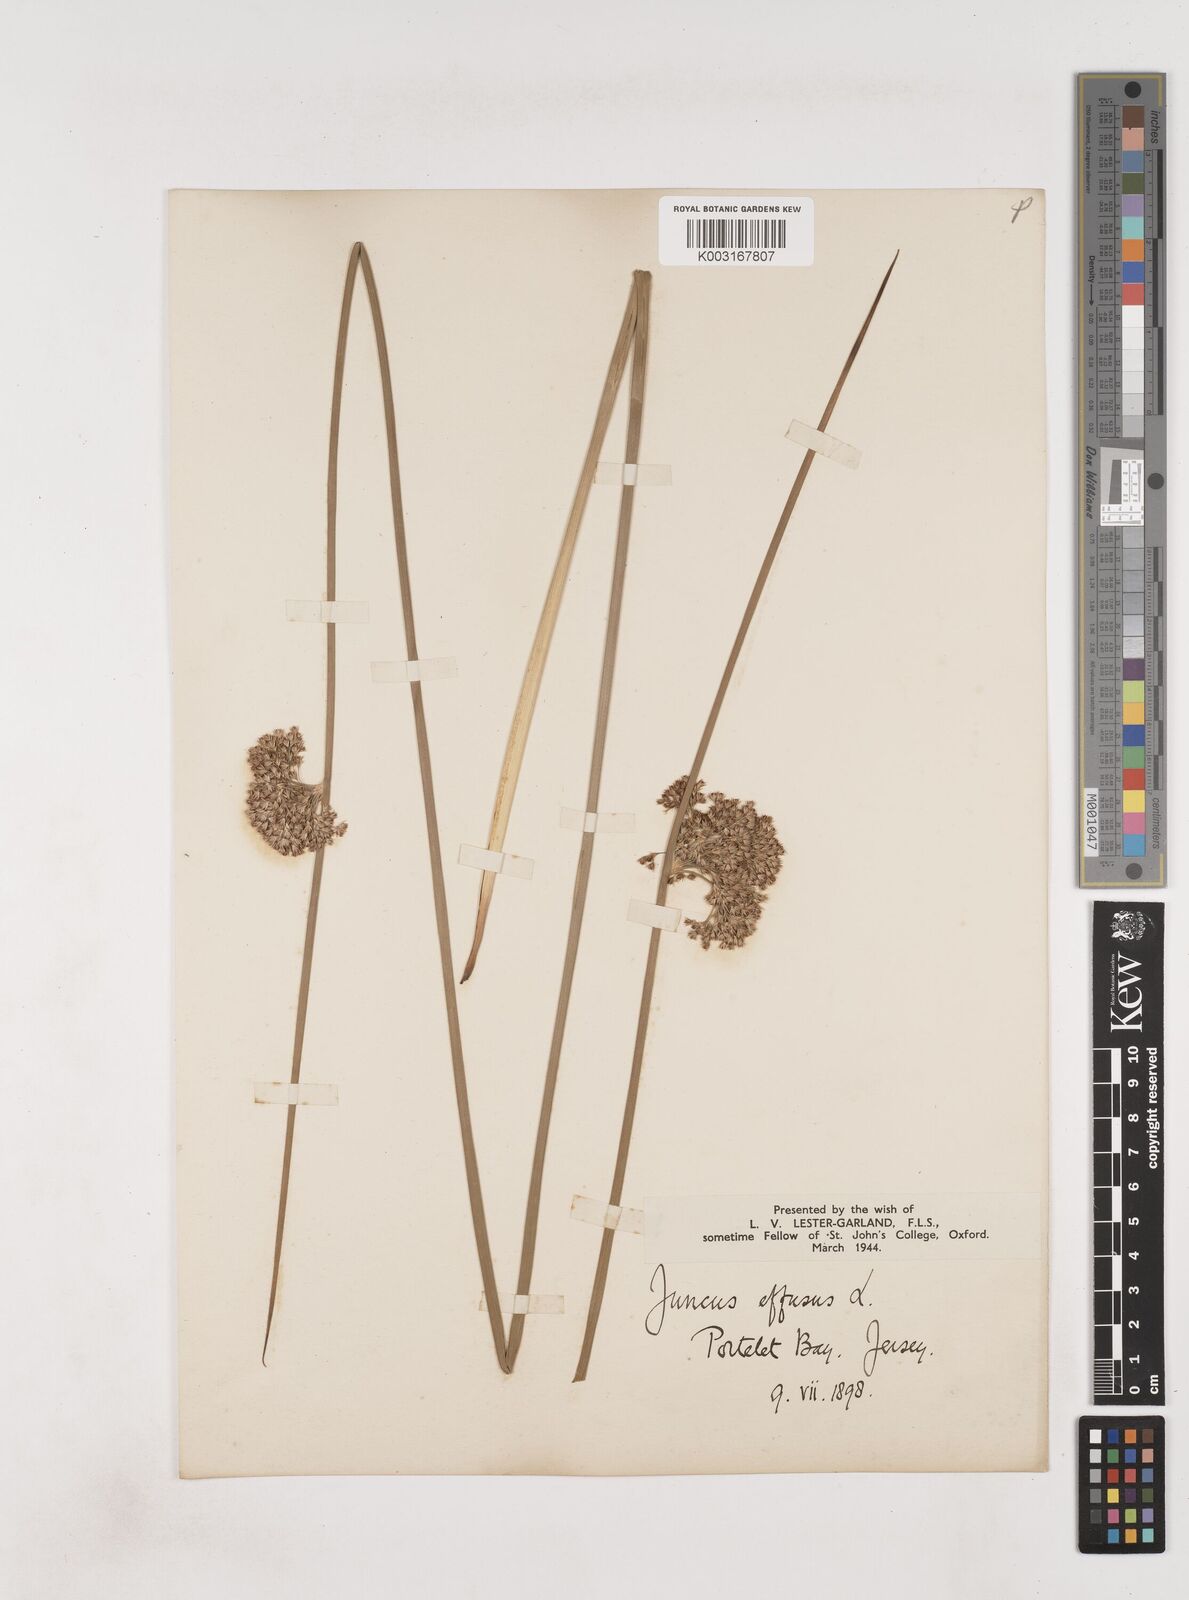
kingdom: Plantae
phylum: Tracheophyta
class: Liliopsida
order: Poales
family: Juncaceae
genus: Juncus
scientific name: Juncus effusus
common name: Soft rush
